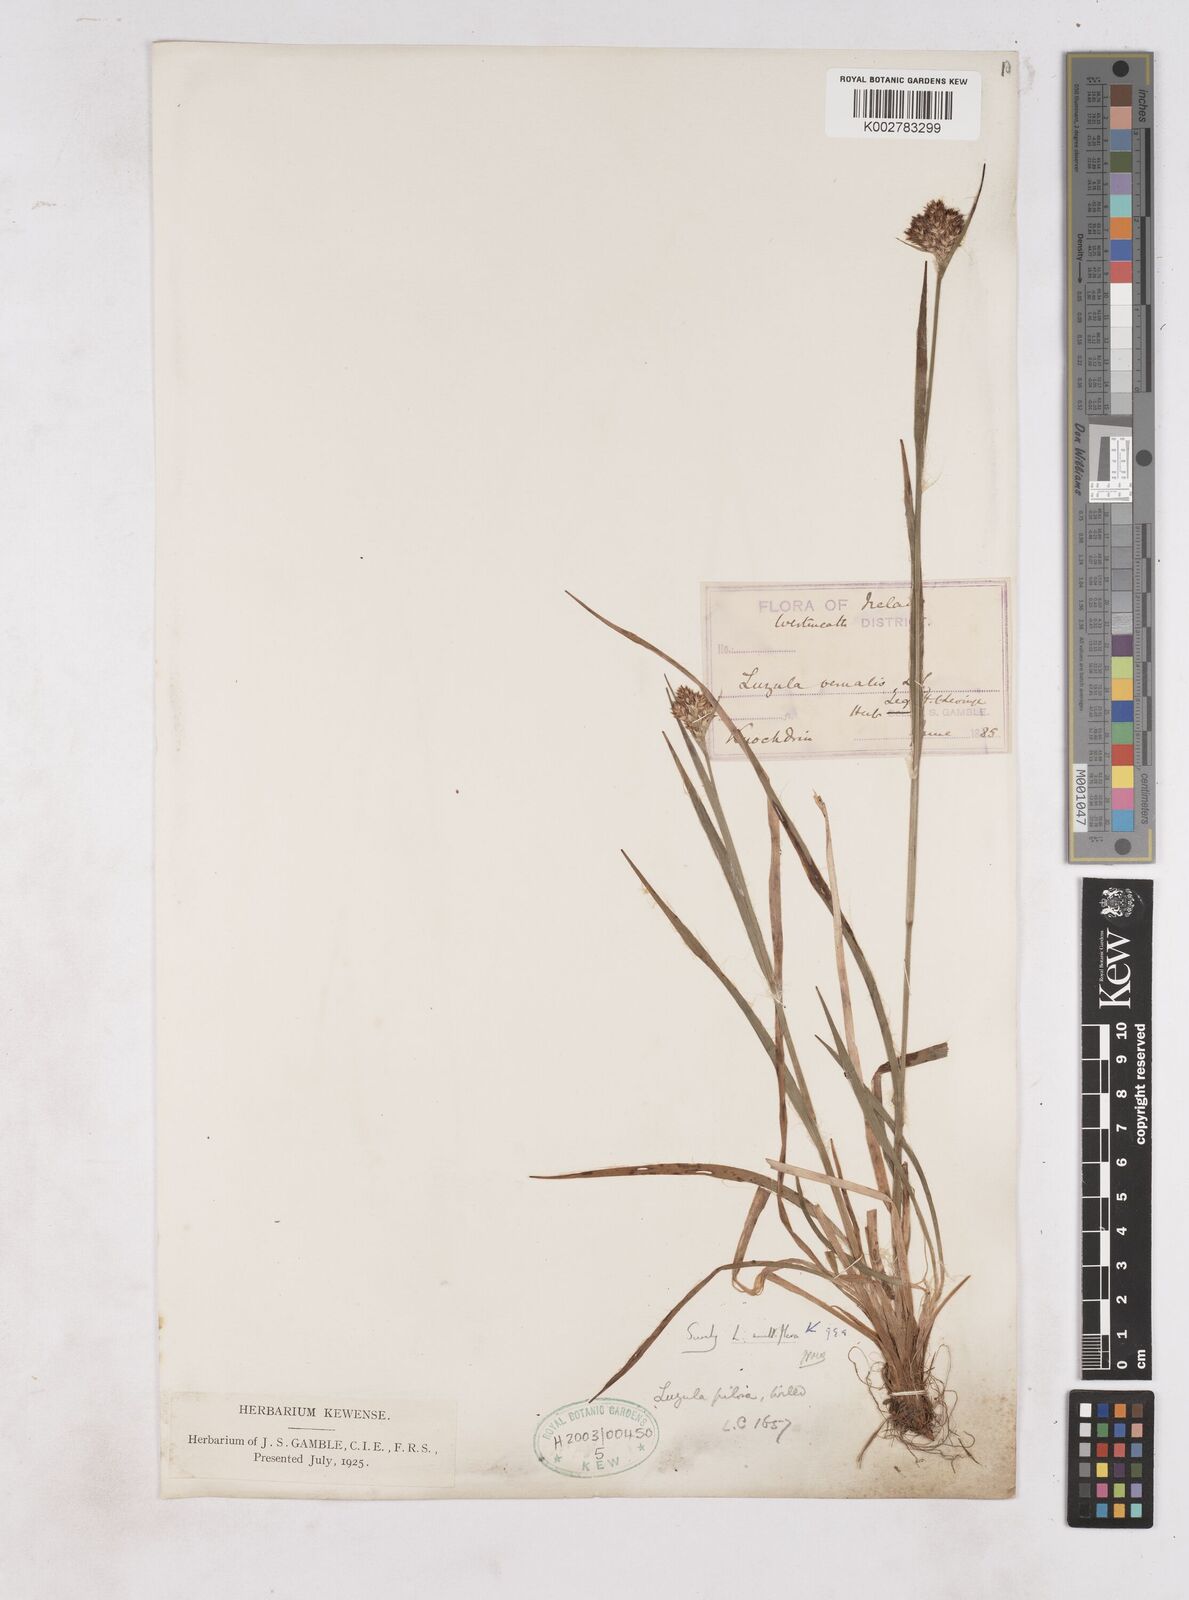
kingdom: Plantae
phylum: Tracheophyta
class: Liliopsida
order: Poales
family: Juncaceae
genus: Luzula
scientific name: Luzula multiflora
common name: Heath wood-rush
